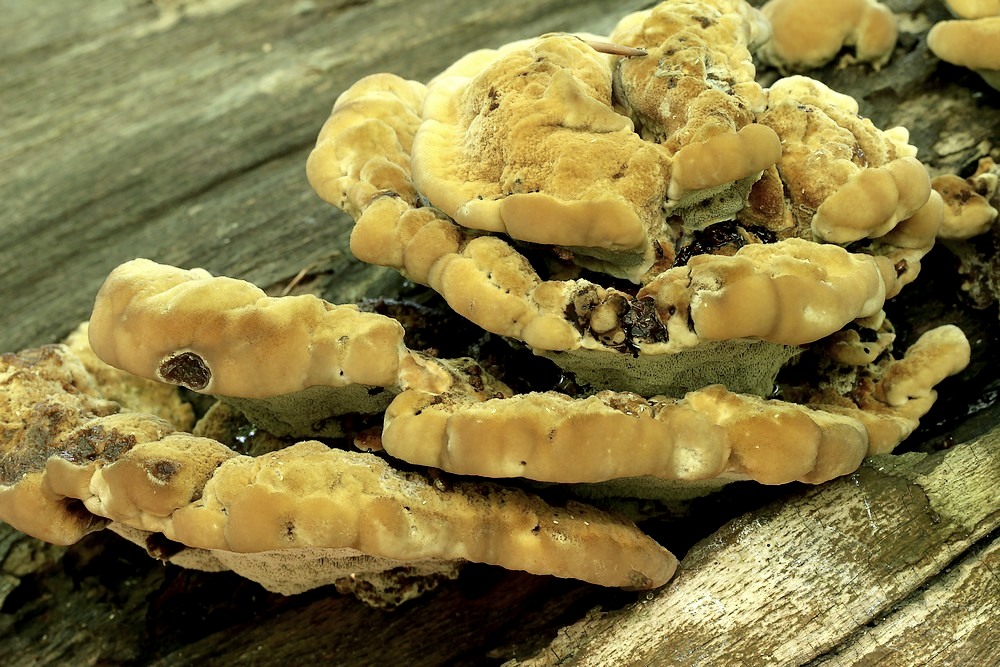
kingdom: Fungi
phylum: Basidiomycota
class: Agaricomycetes
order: Hymenochaetales
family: Hymenochaetaceae
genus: Inonotus
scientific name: Inonotus cuticularis
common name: kroghåret spejlporesvamp
